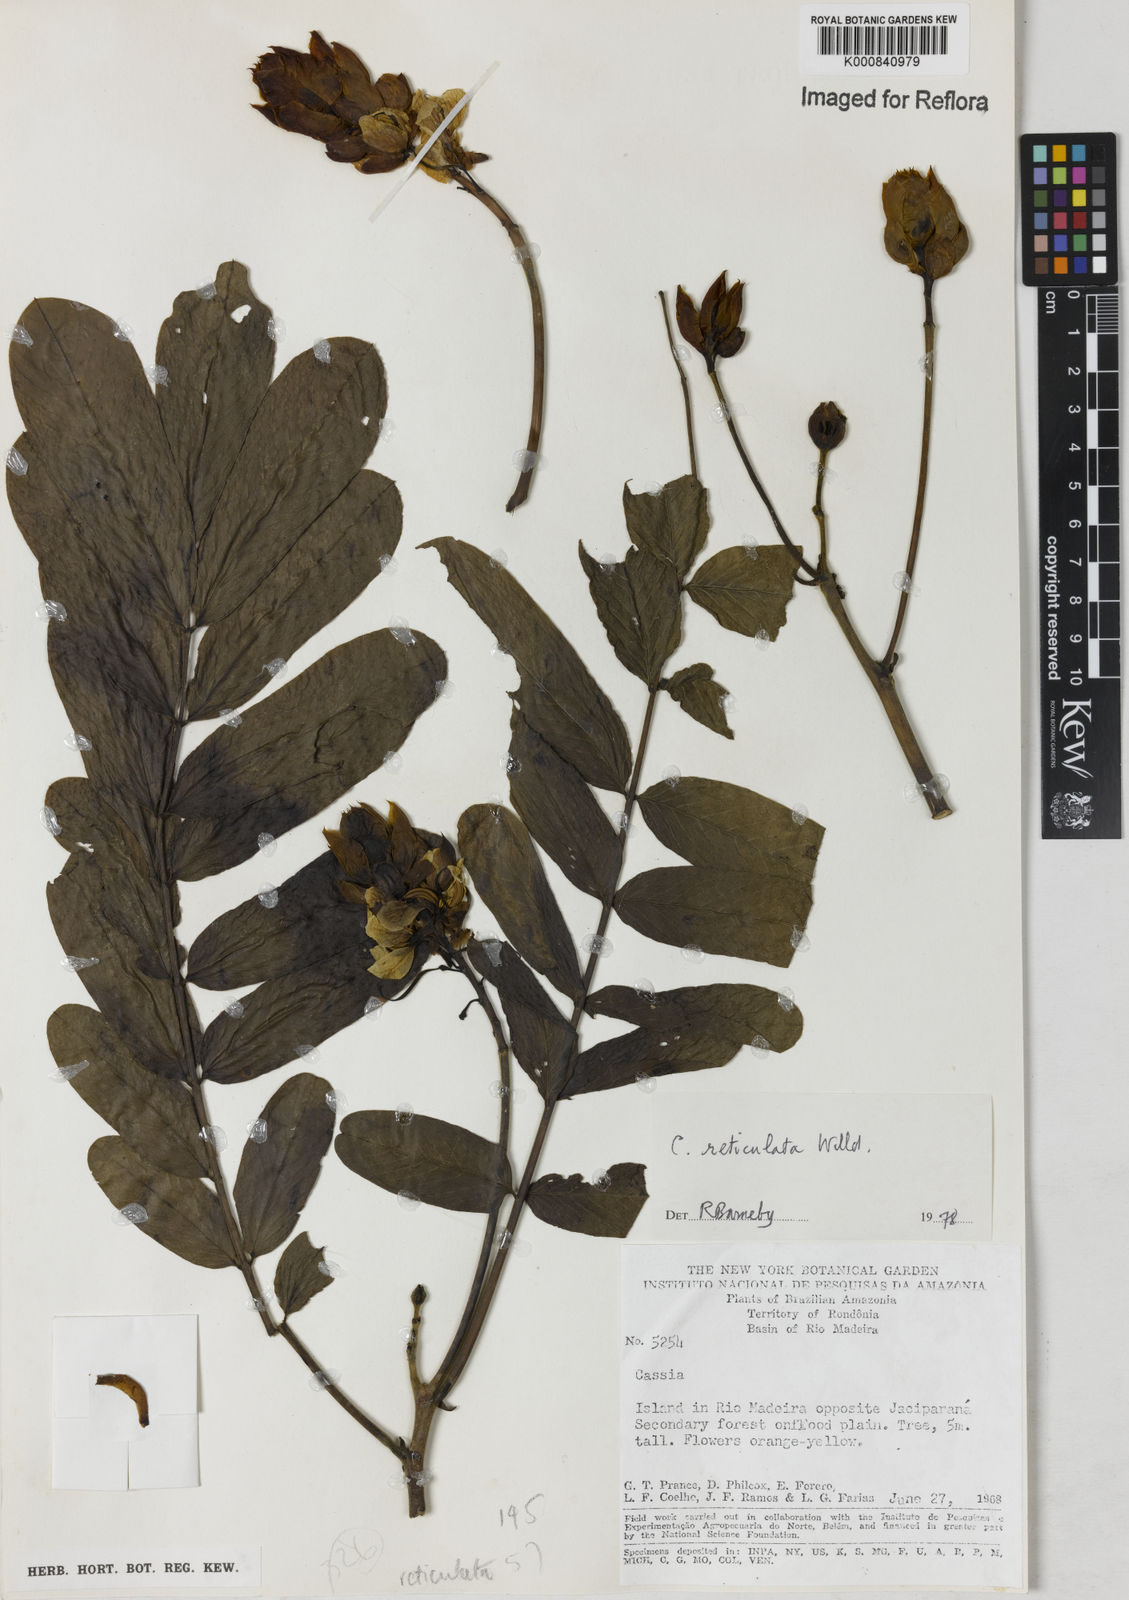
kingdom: Plantae
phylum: Tracheophyta
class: Magnoliopsida
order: Fabales
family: Fabaceae
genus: Senna
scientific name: Senna reticulata
